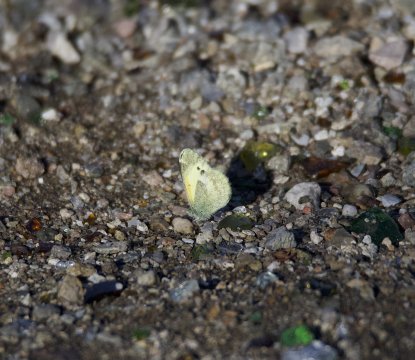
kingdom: Animalia
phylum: Arthropoda
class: Insecta
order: Lepidoptera
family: Pieridae
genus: Nathalis
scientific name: Nathalis iole
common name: Dainty Sulphur
